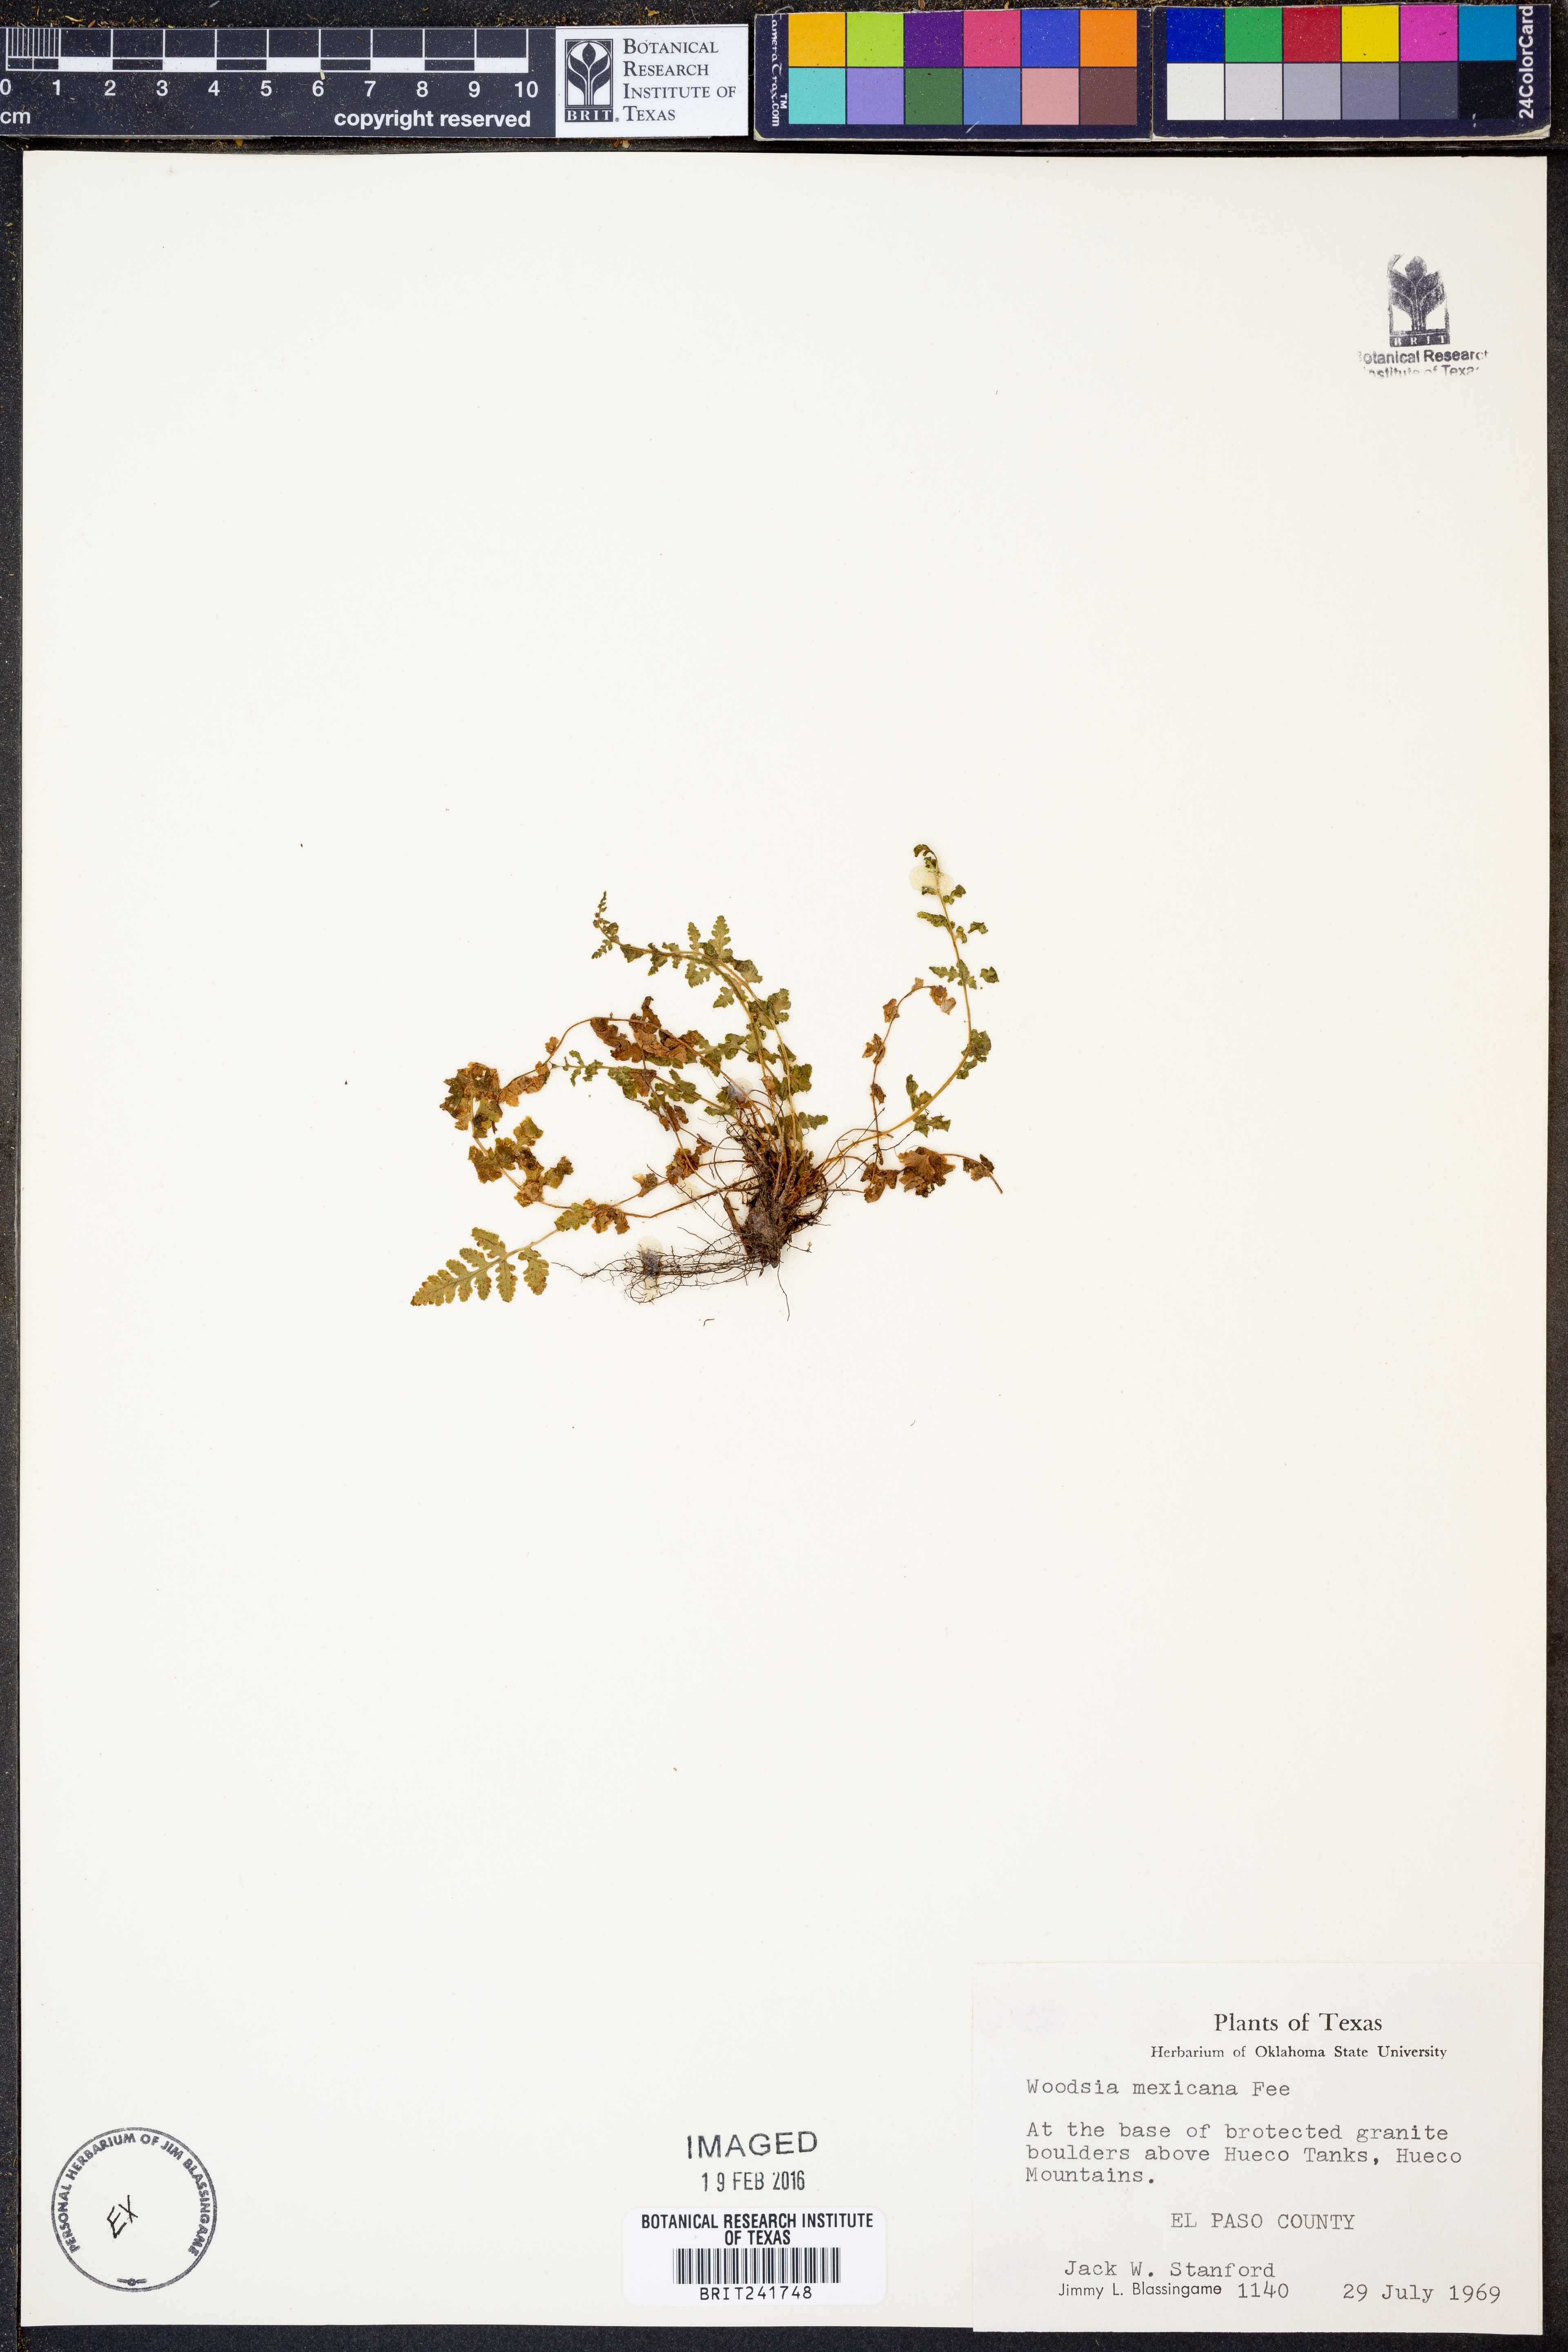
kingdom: Plantae
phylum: Tracheophyta
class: Polypodiopsida
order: Polypodiales
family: Woodsiaceae
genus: Physematium
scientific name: Physematium mexicanum
